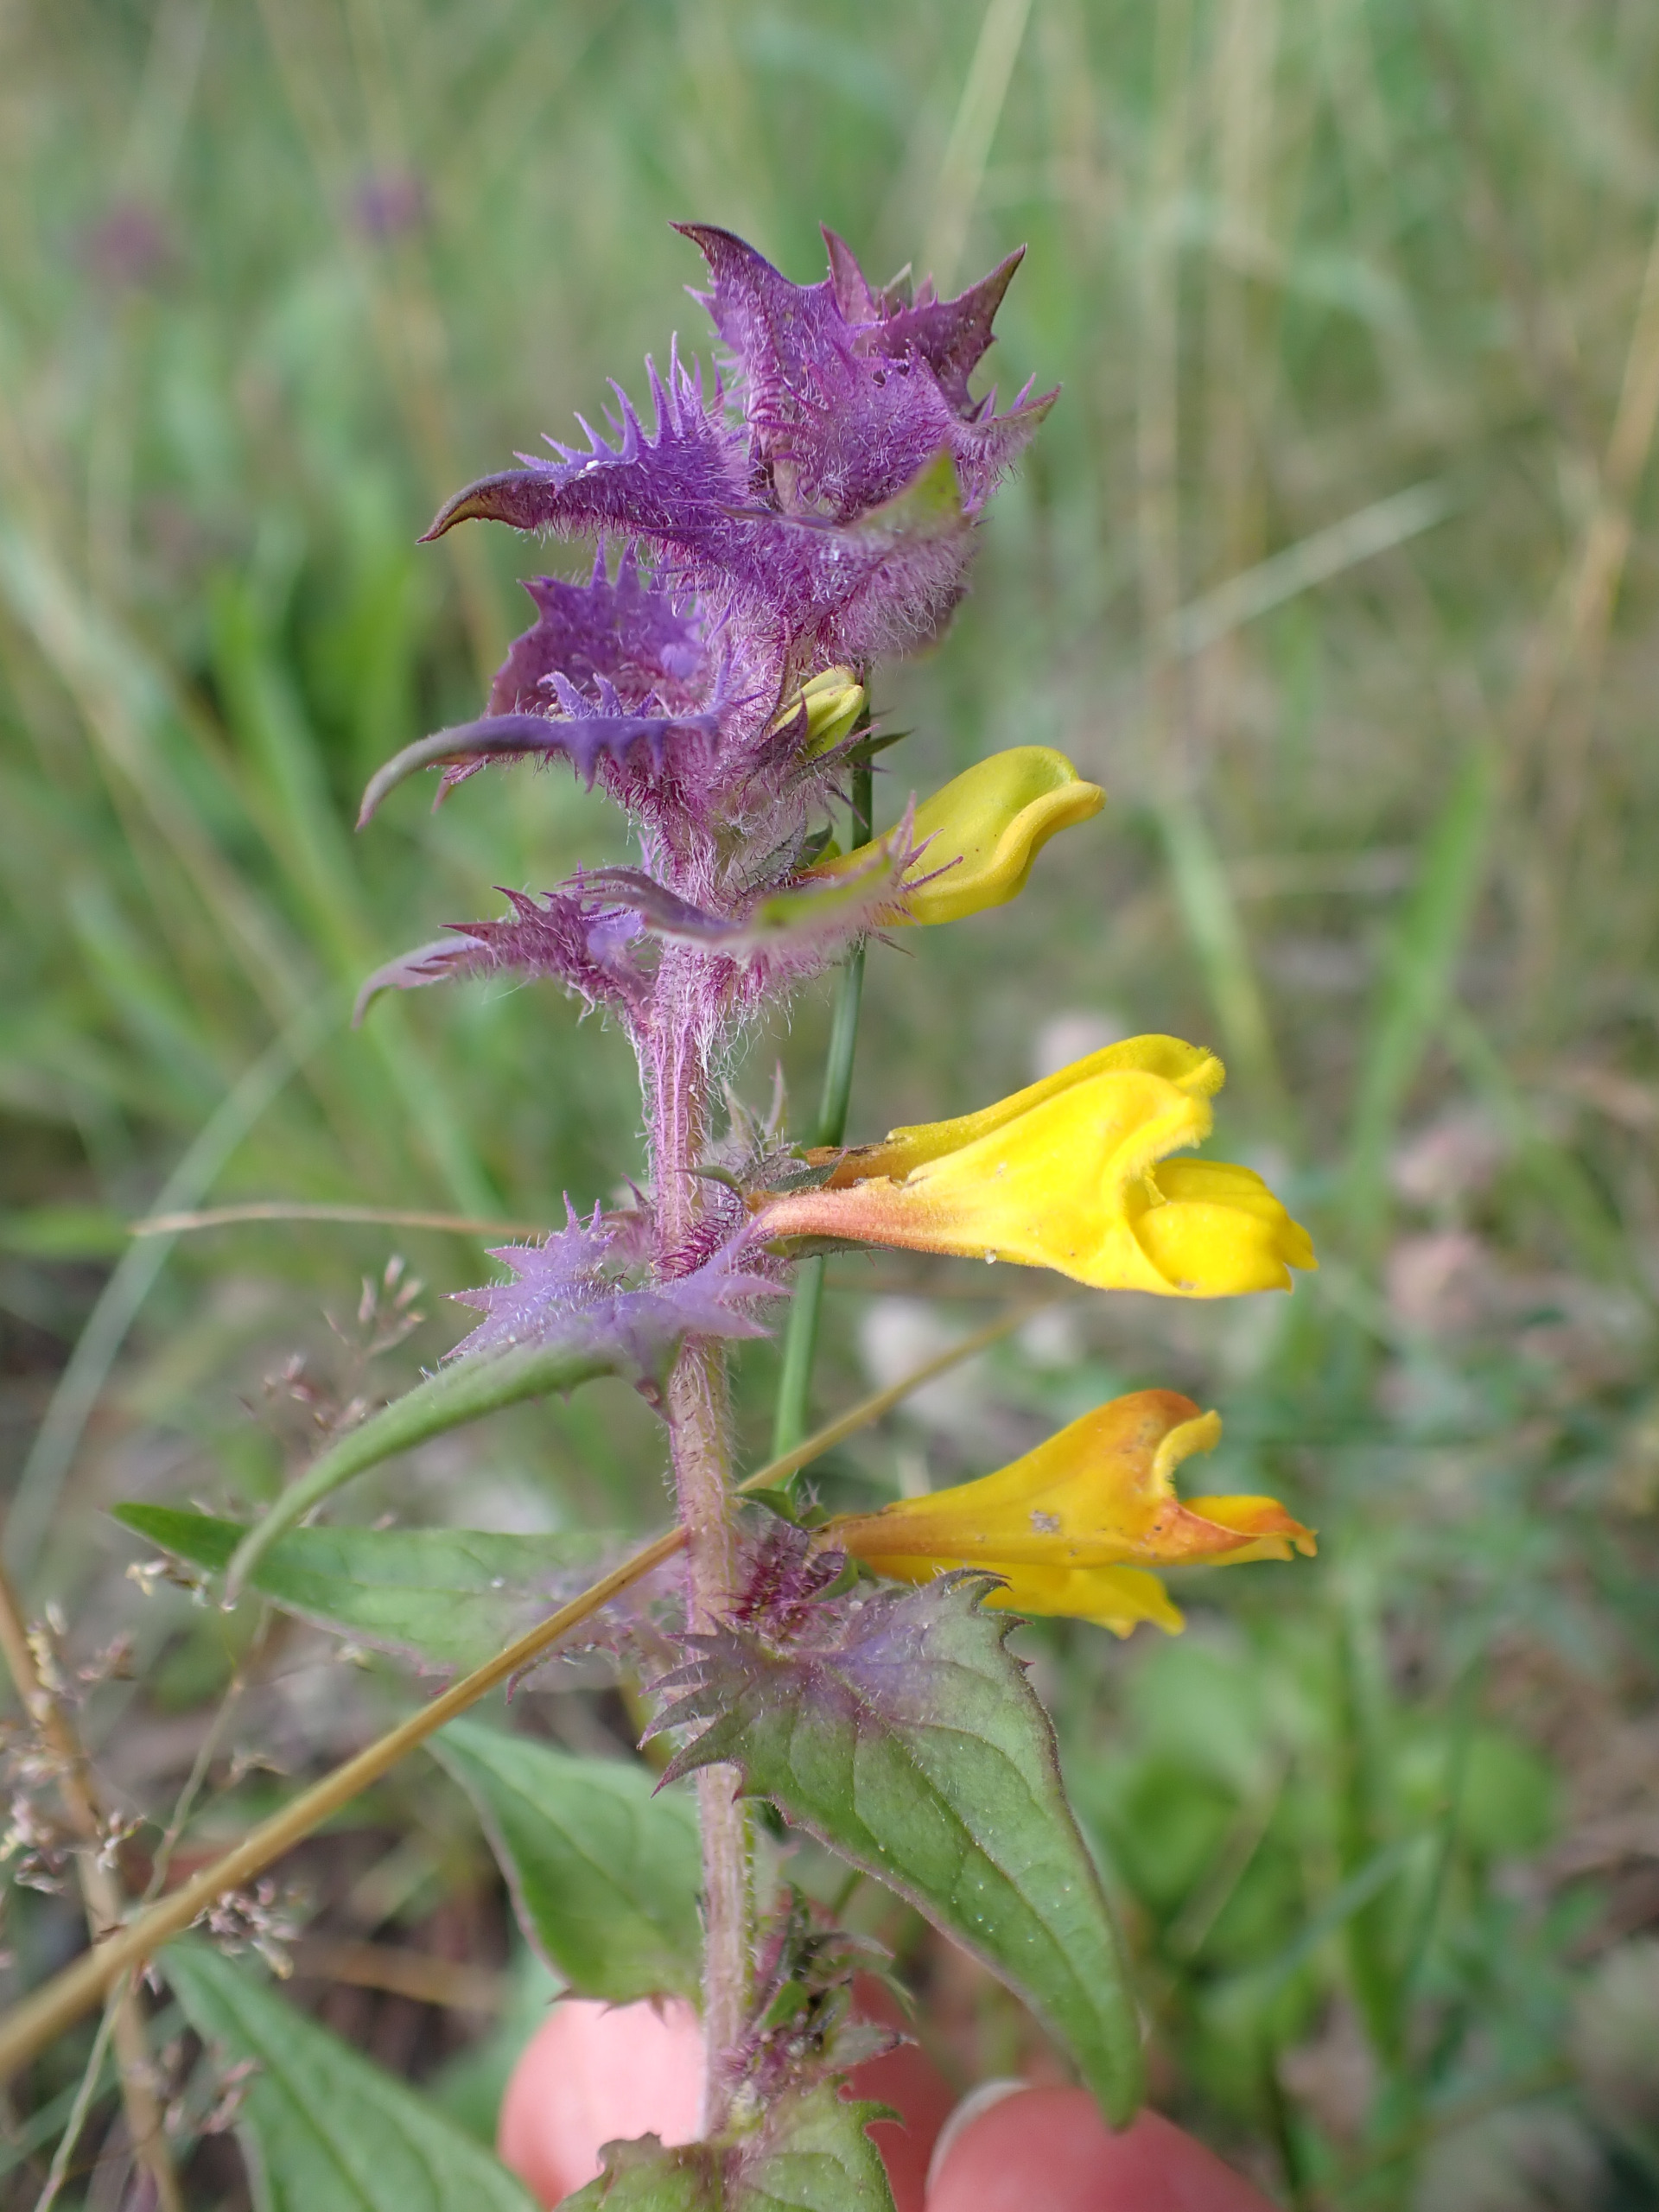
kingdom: Plantae
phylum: Tracheophyta
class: Magnoliopsida
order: Lamiales
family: Orobanchaceae
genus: Melampyrum
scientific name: Melampyrum nemorosum
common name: Blåtoppet kohvede
